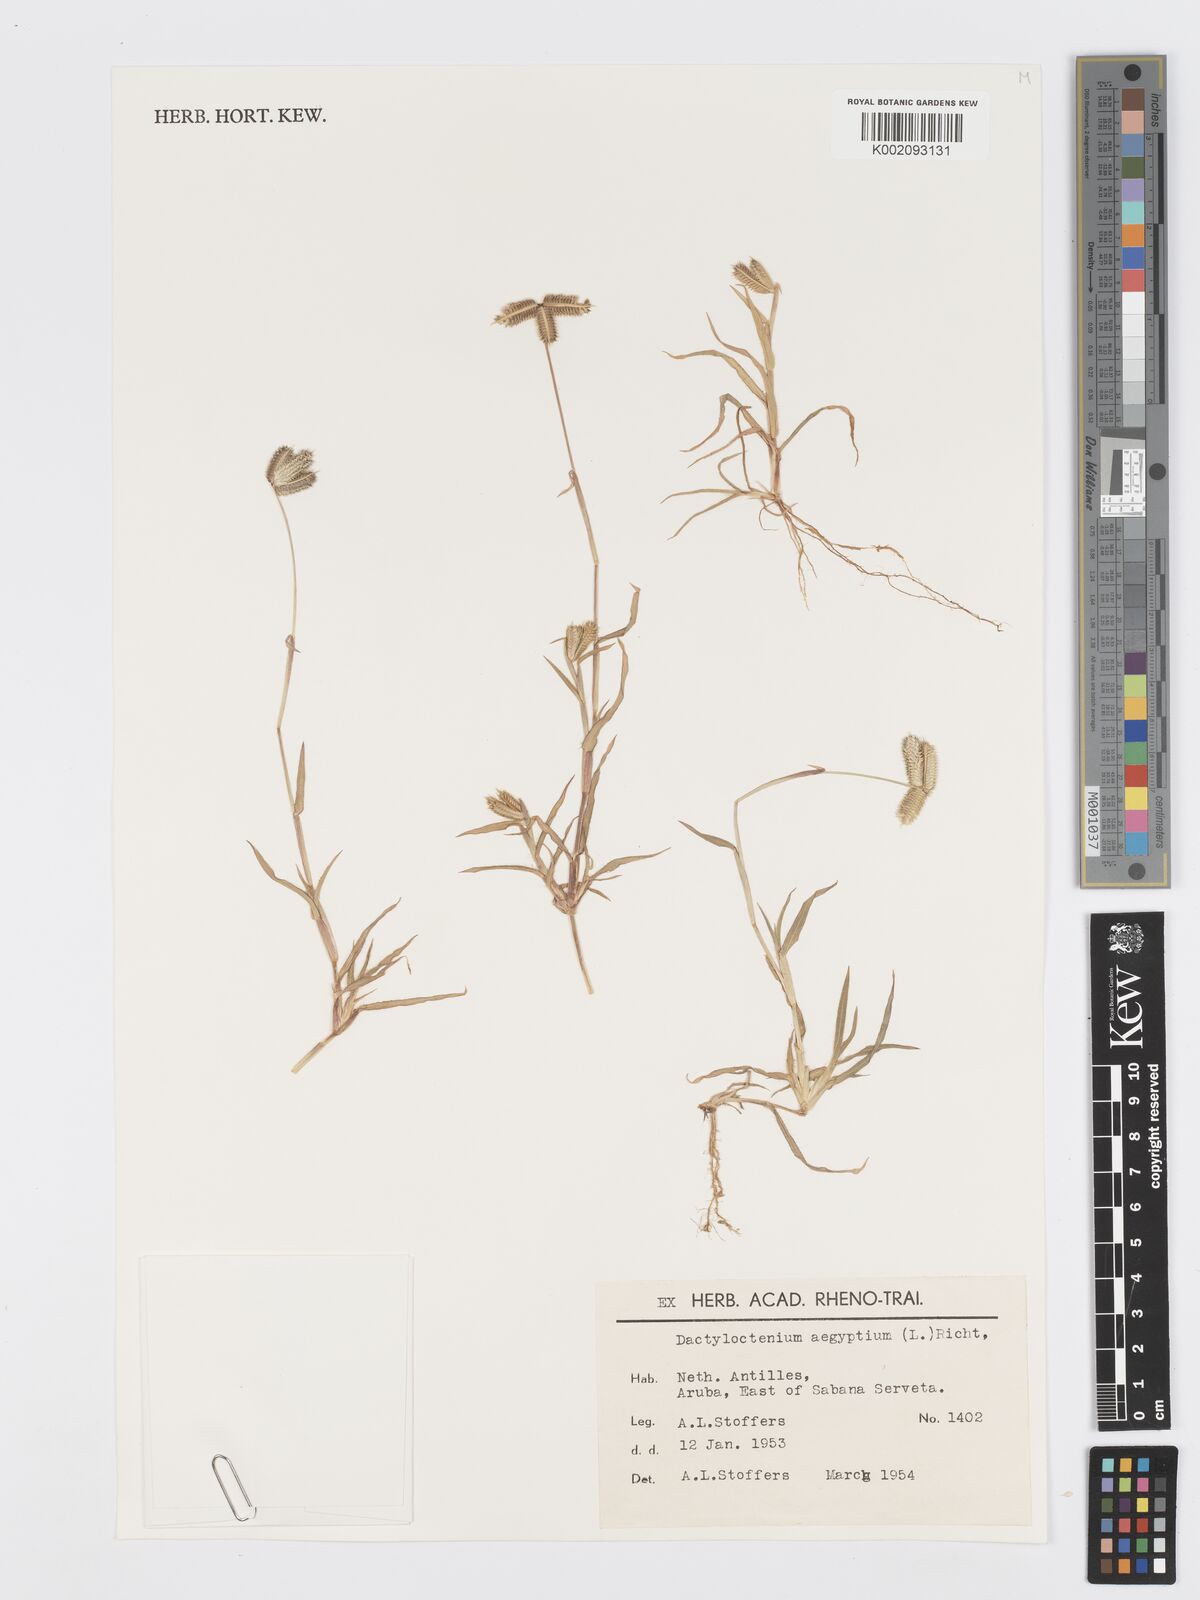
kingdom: Plantae
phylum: Tracheophyta
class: Liliopsida
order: Poales
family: Poaceae
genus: Dactyloctenium
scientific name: Dactyloctenium aegyptium
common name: Egyptian grass
